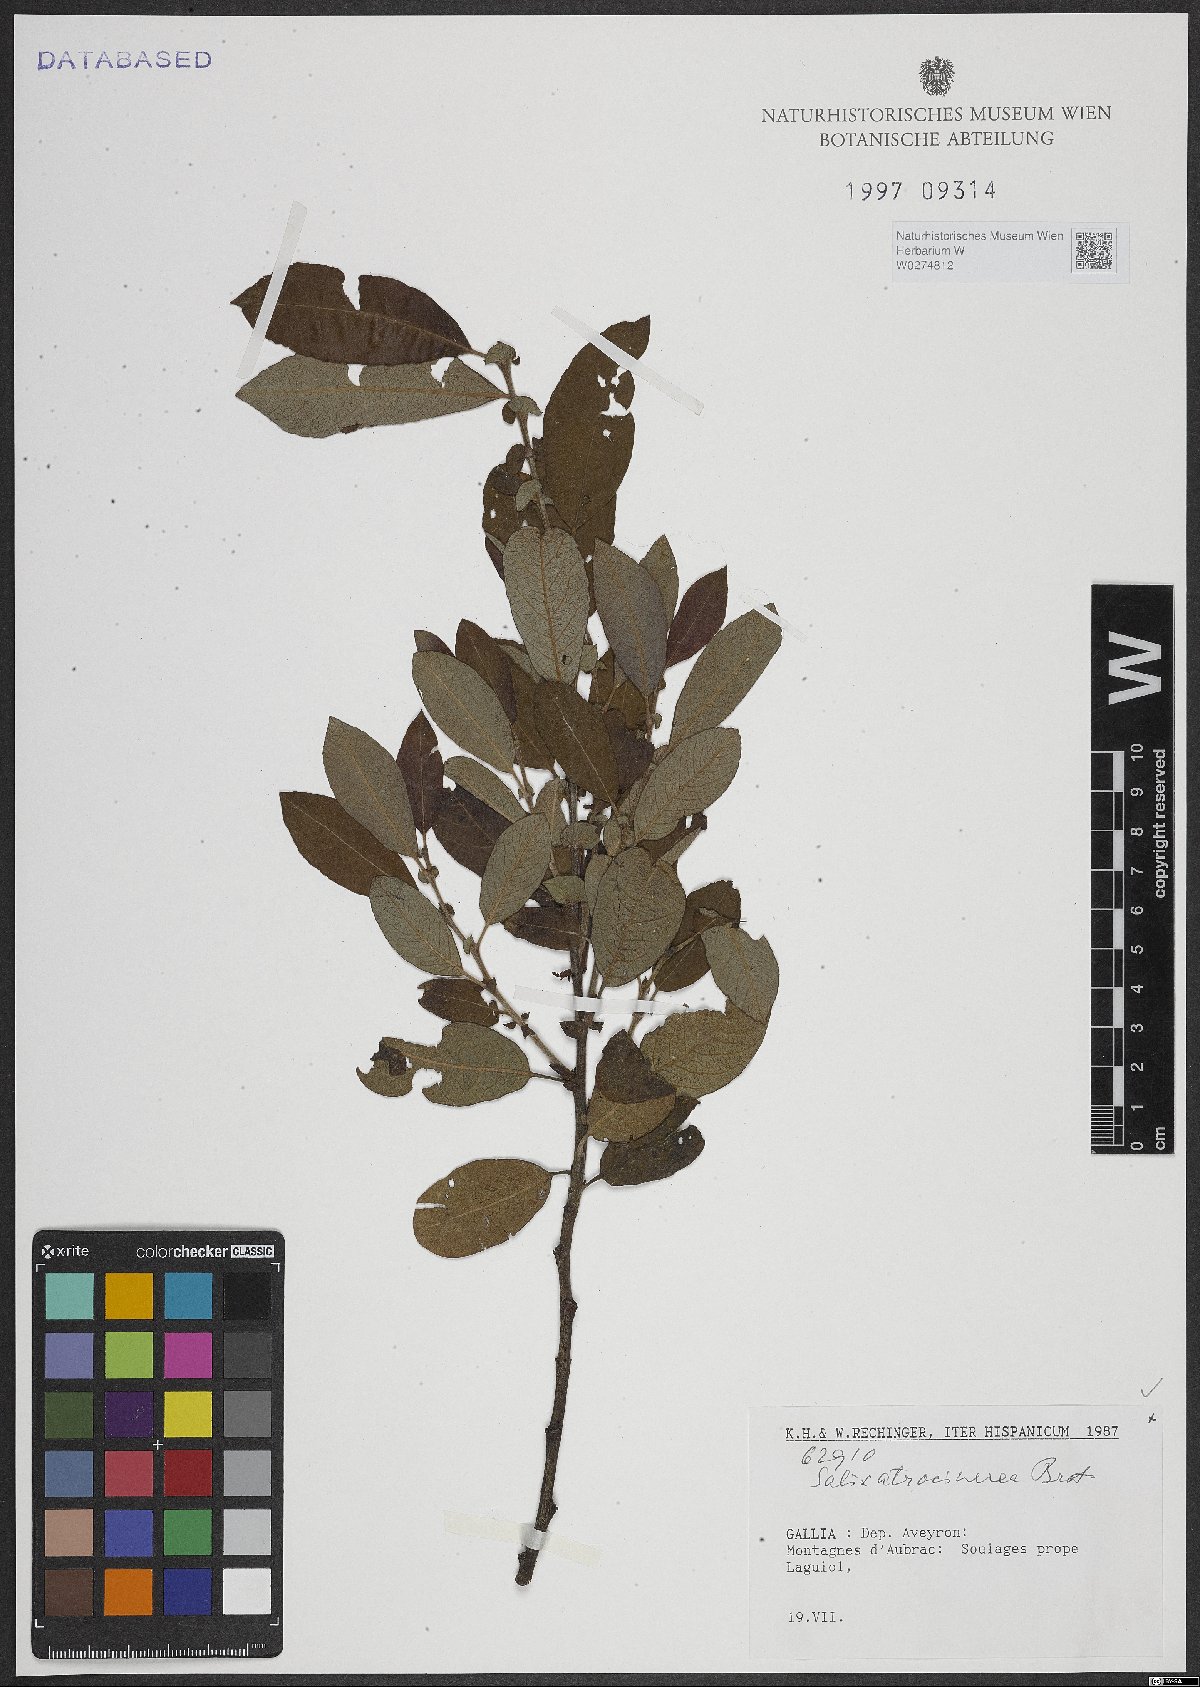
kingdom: Plantae
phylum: Tracheophyta
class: Magnoliopsida
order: Malpighiales
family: Salicaceae
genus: Salix
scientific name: Salix atrocinerea
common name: Rusty willow
